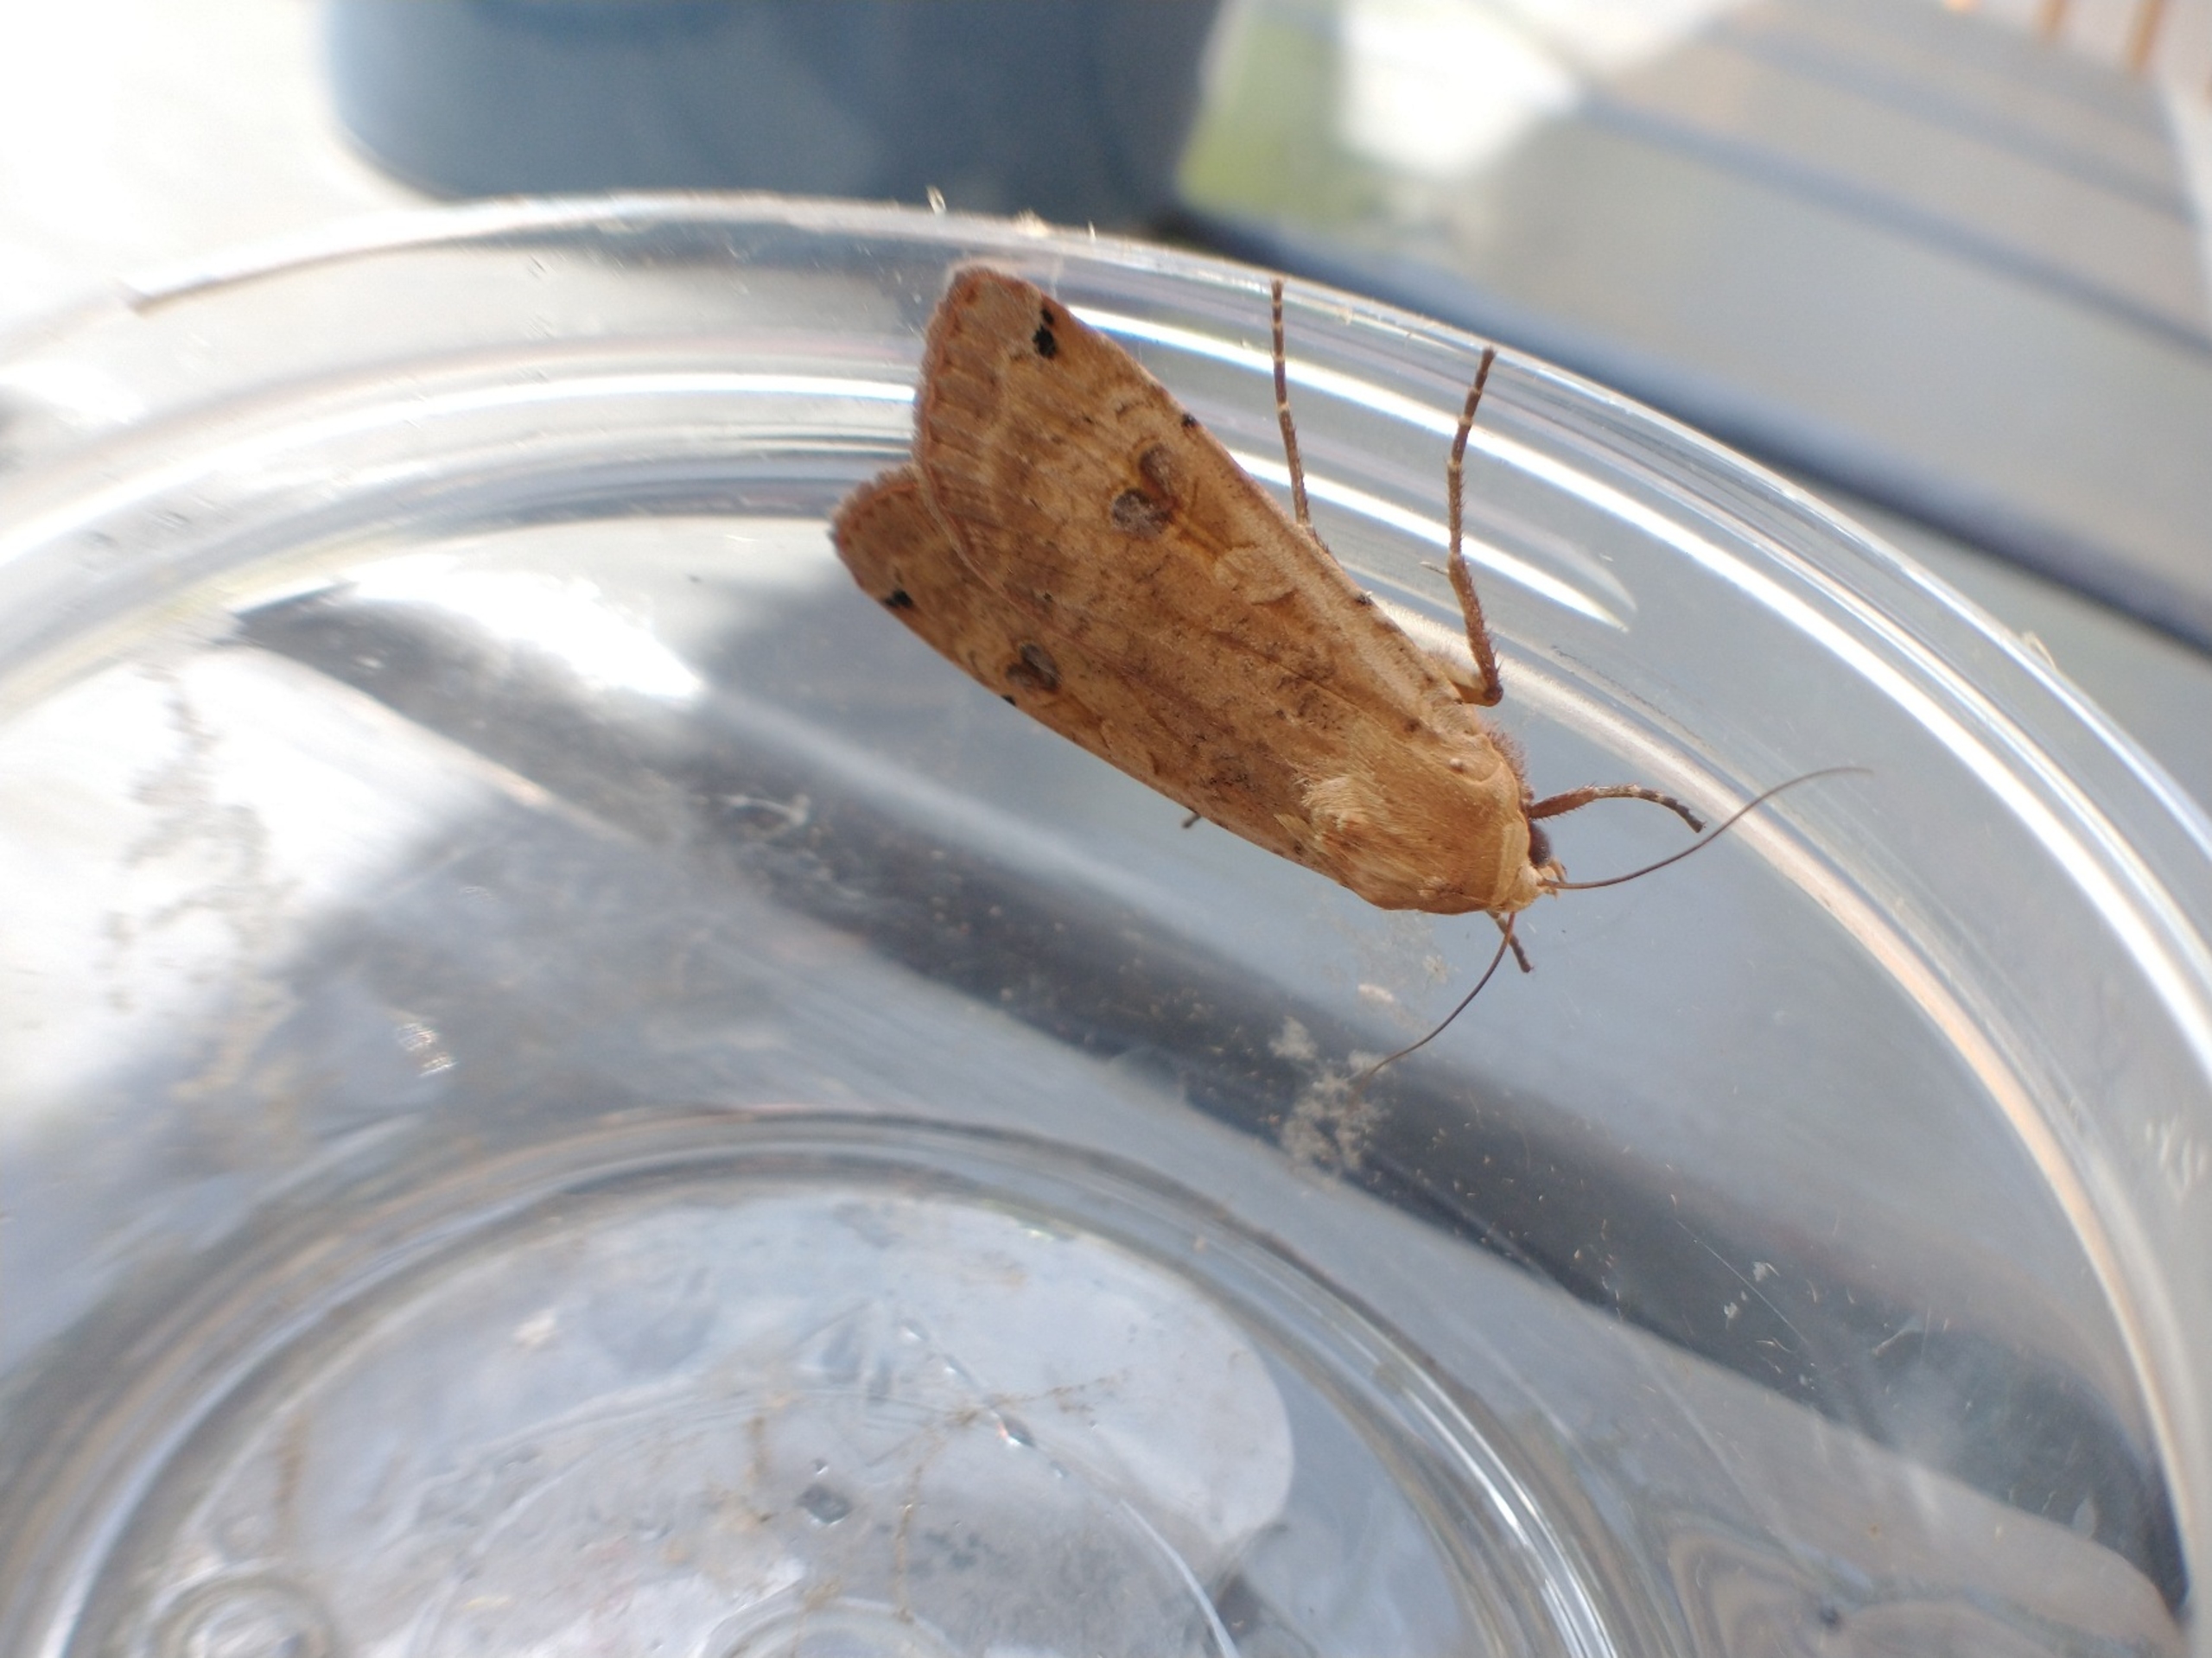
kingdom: Animalia
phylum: Arthropoda
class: Insecta
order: Lepidoptera
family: Noctuidae
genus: Noctua
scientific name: Noctua pronuba
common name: Stor smutugle
